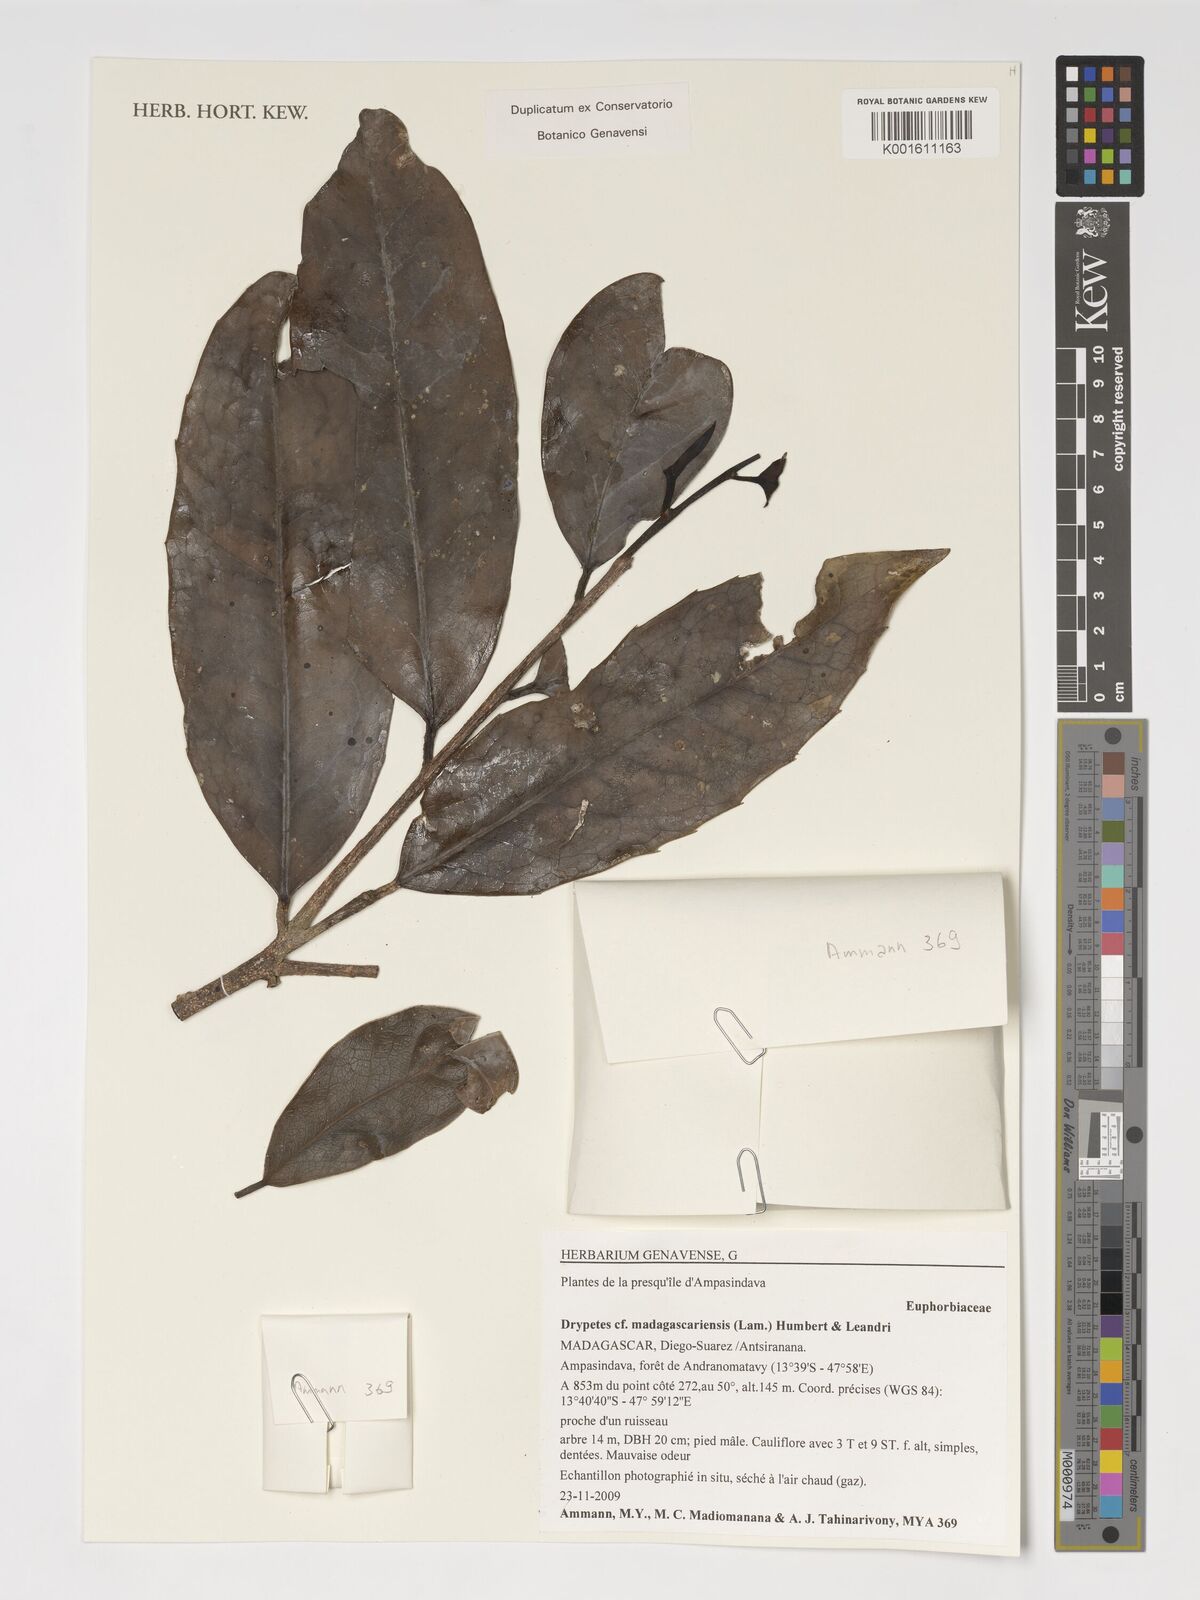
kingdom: Plantae
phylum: Tracheophyta
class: Magnoliopsida
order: Malpighiales
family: Putranjivaceae
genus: Drypetes
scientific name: Drypetes madagascariensis
